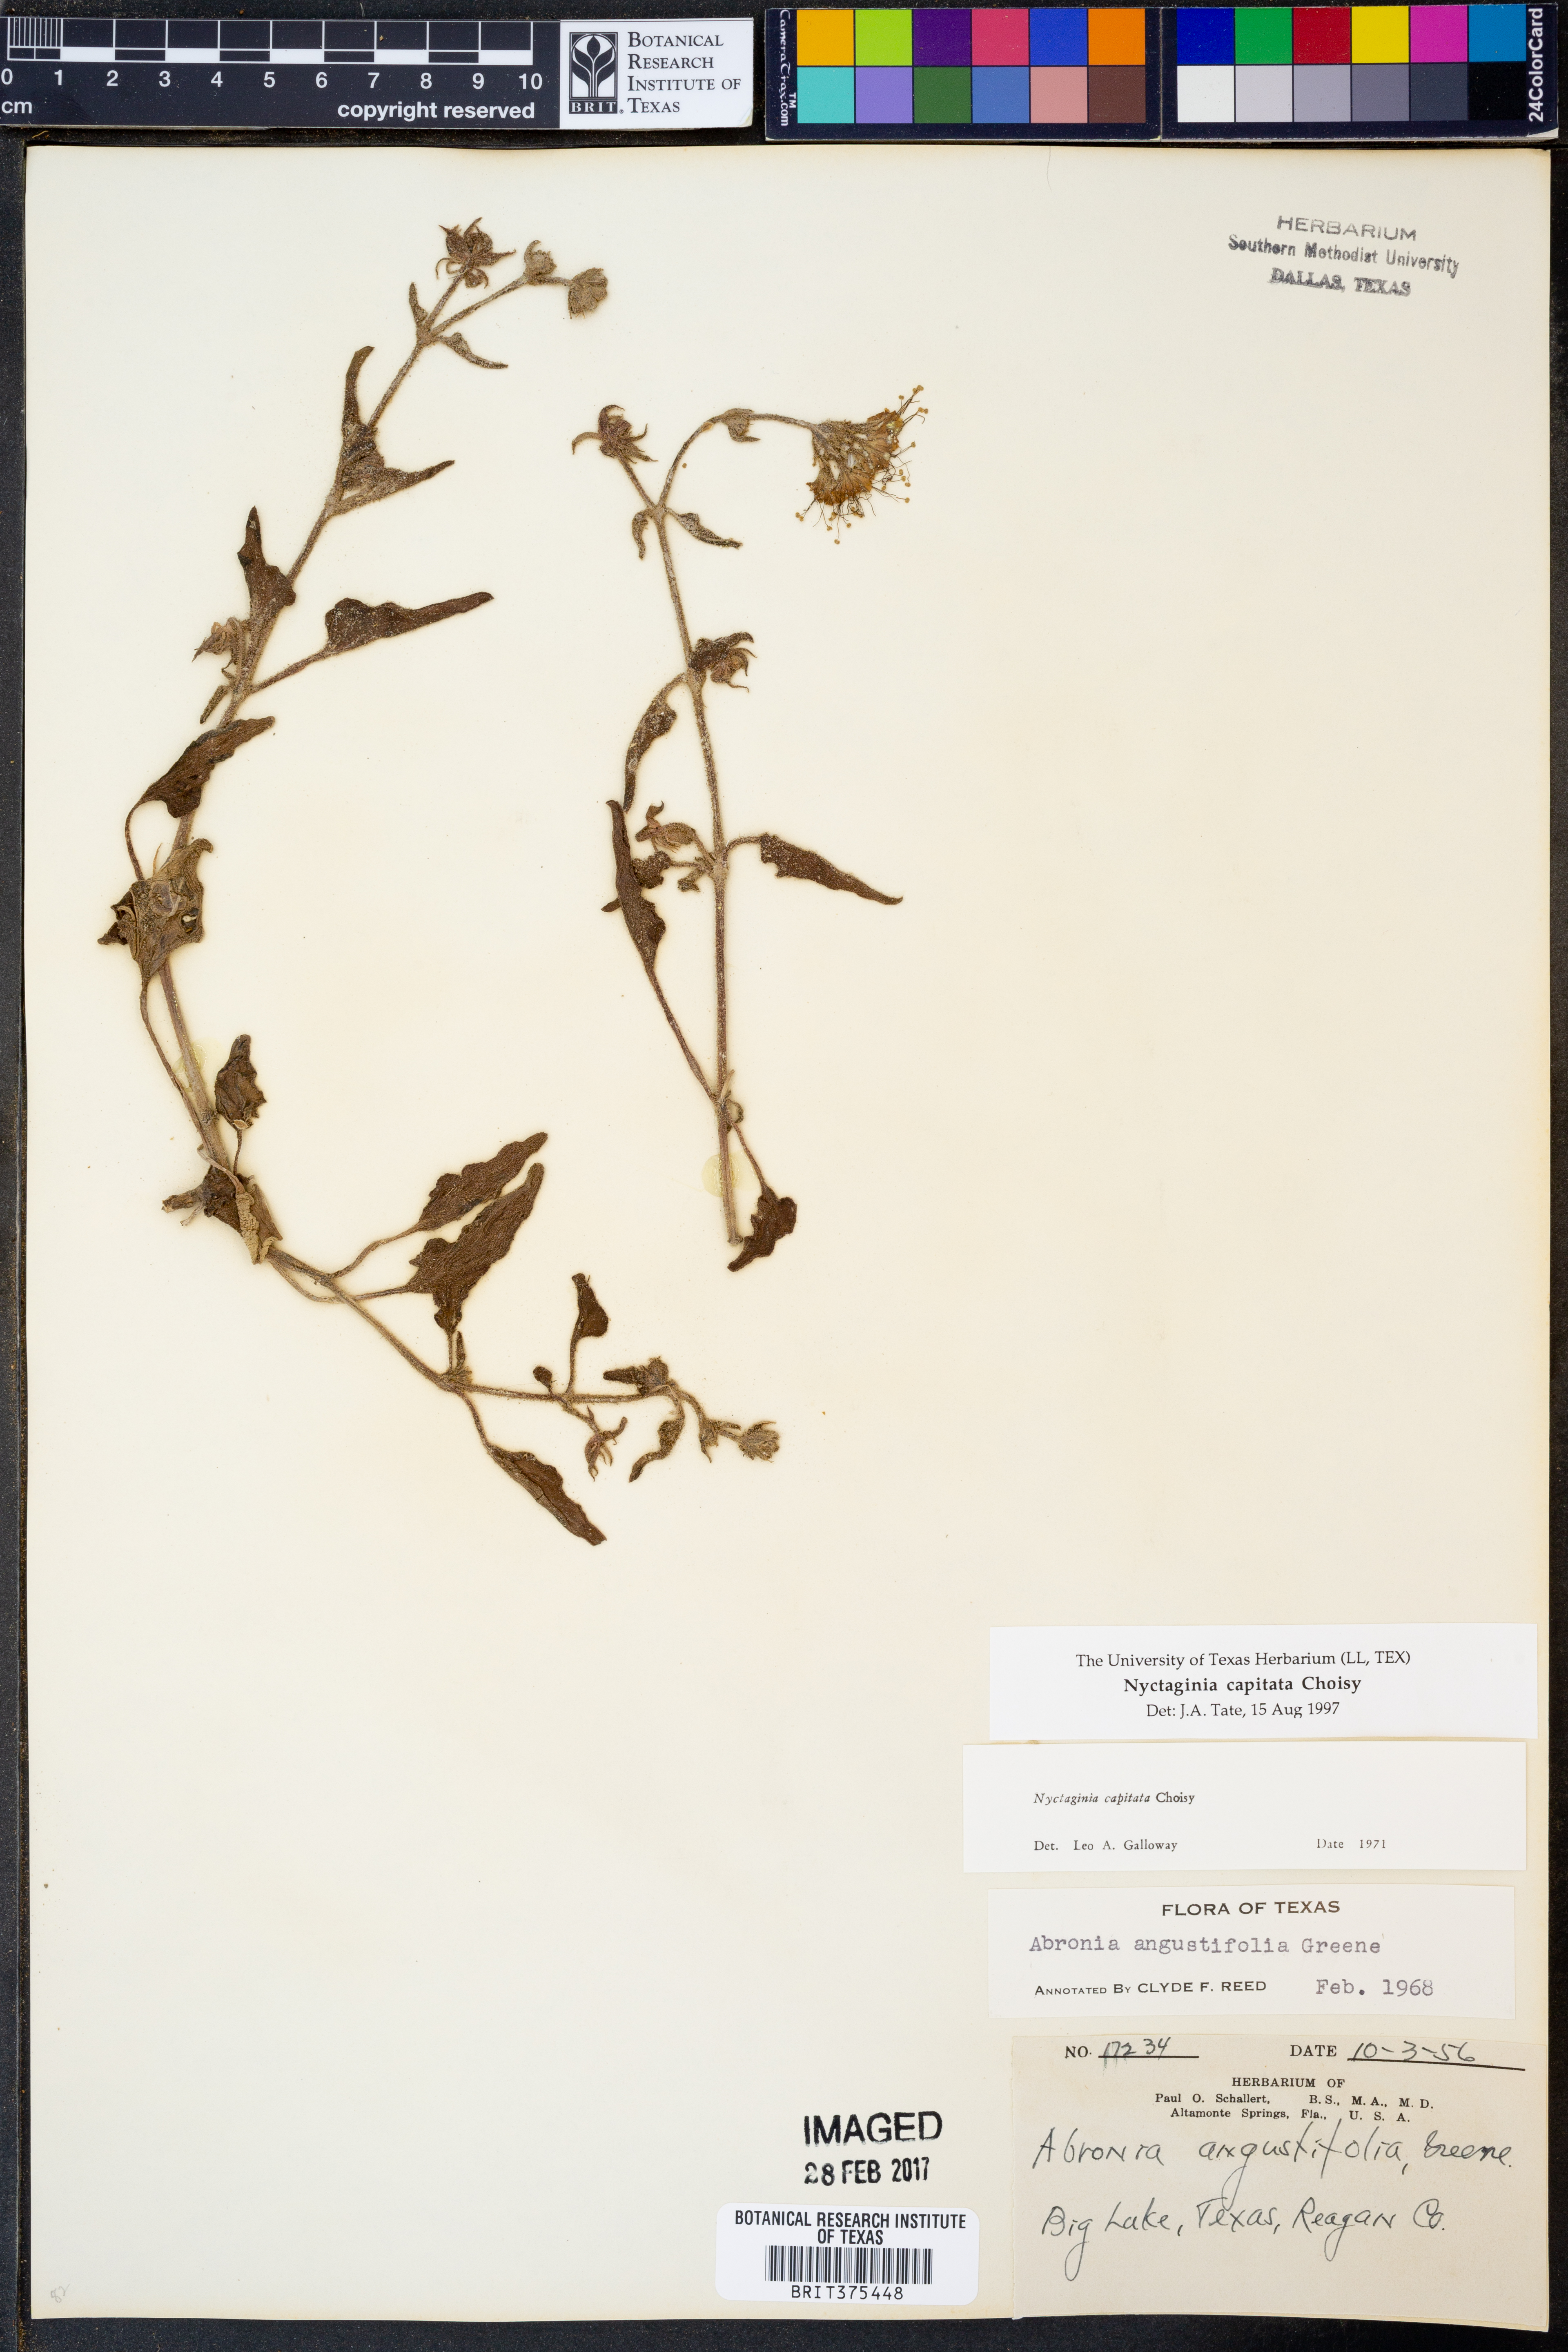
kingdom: Plantae
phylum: Tracheophyta
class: Magnoliopsida
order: Caryophyllales
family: Nyctaginaceae
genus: Nyctaginia
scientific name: Nyctaginia capitata
